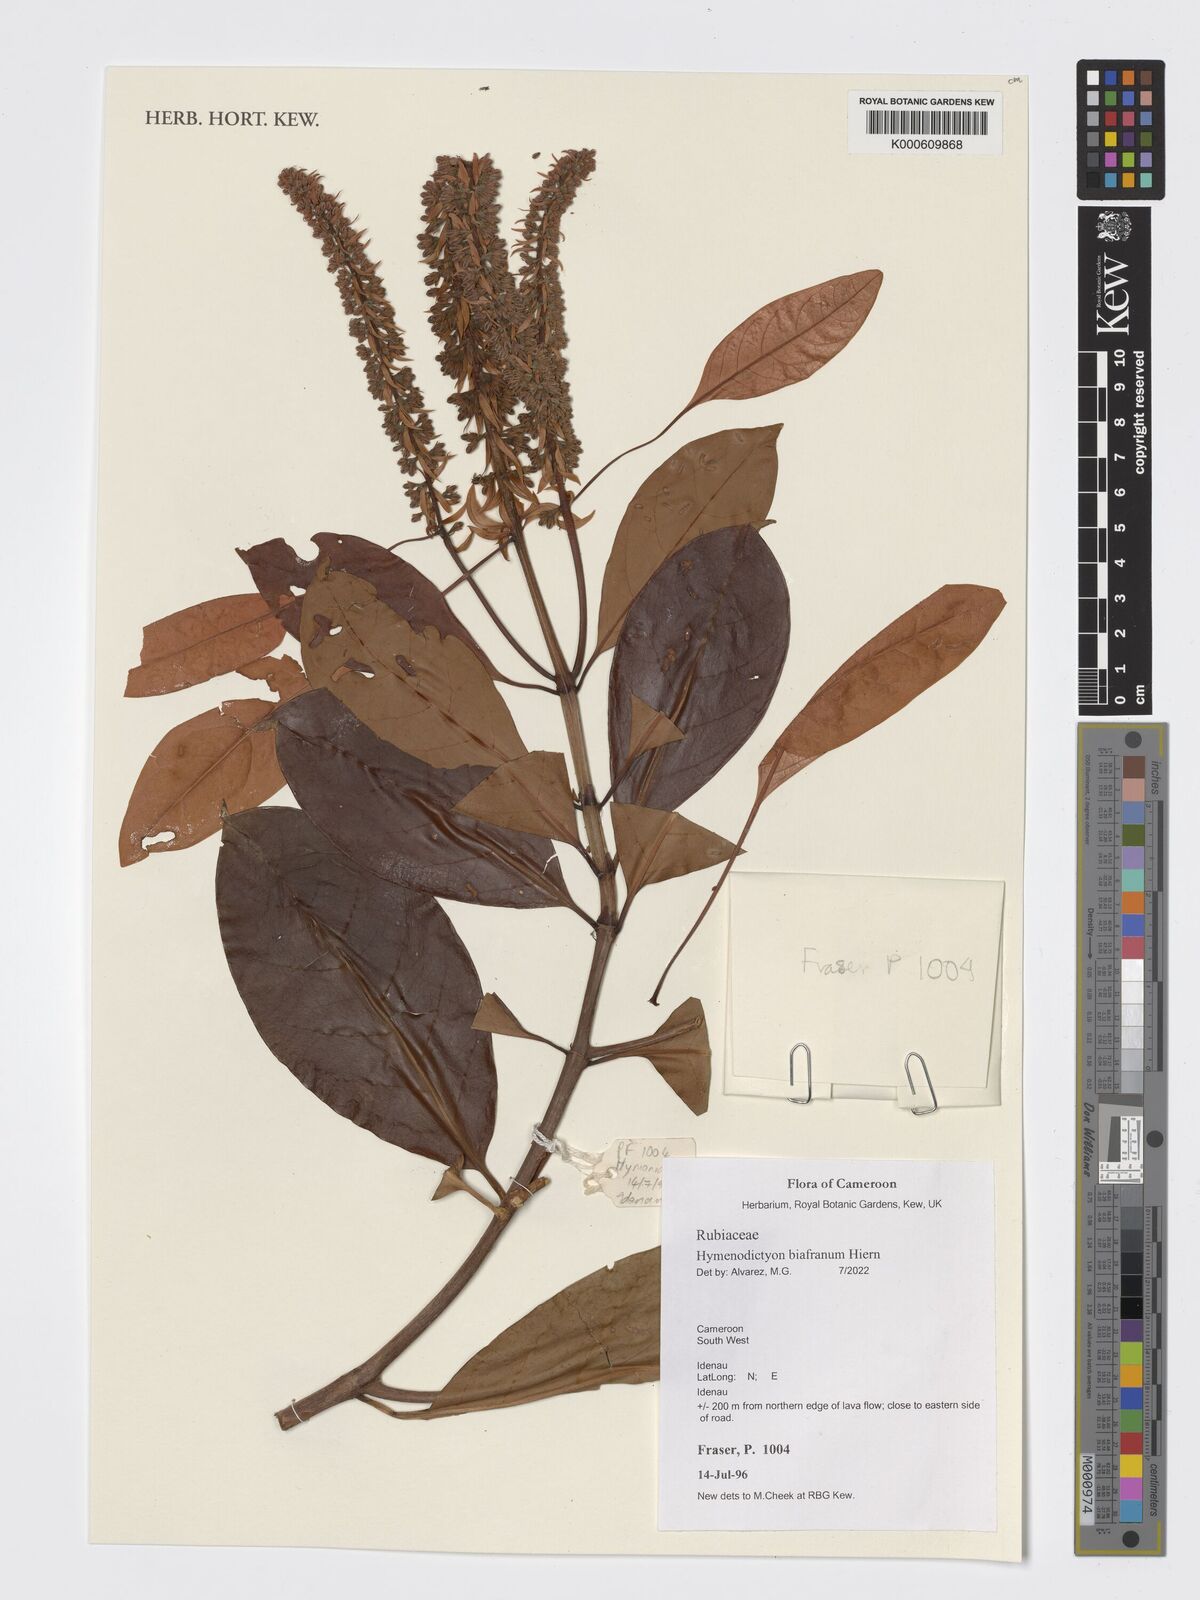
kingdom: Plantae
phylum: Tracheophyta
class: Magnoliopsida
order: Gentianales
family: Rubiaceae
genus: Hymenodictyon
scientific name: Hymenodictyon biafranum
